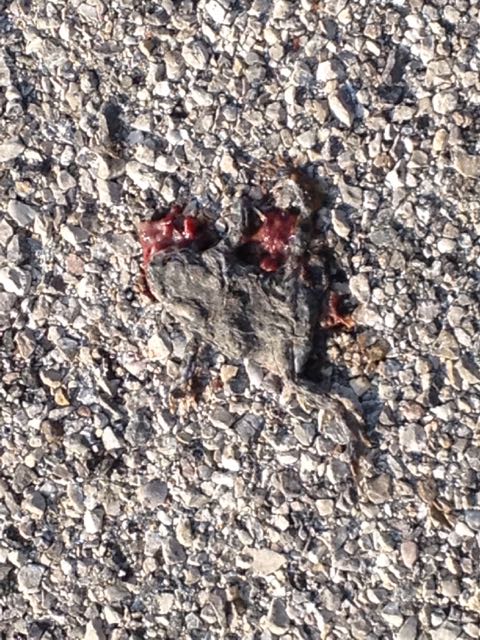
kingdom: Animalia
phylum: Chordata
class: Amphibia
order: Anura
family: Bufonidae
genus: Bufotes
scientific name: Bufotes viridis
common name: European green toad
